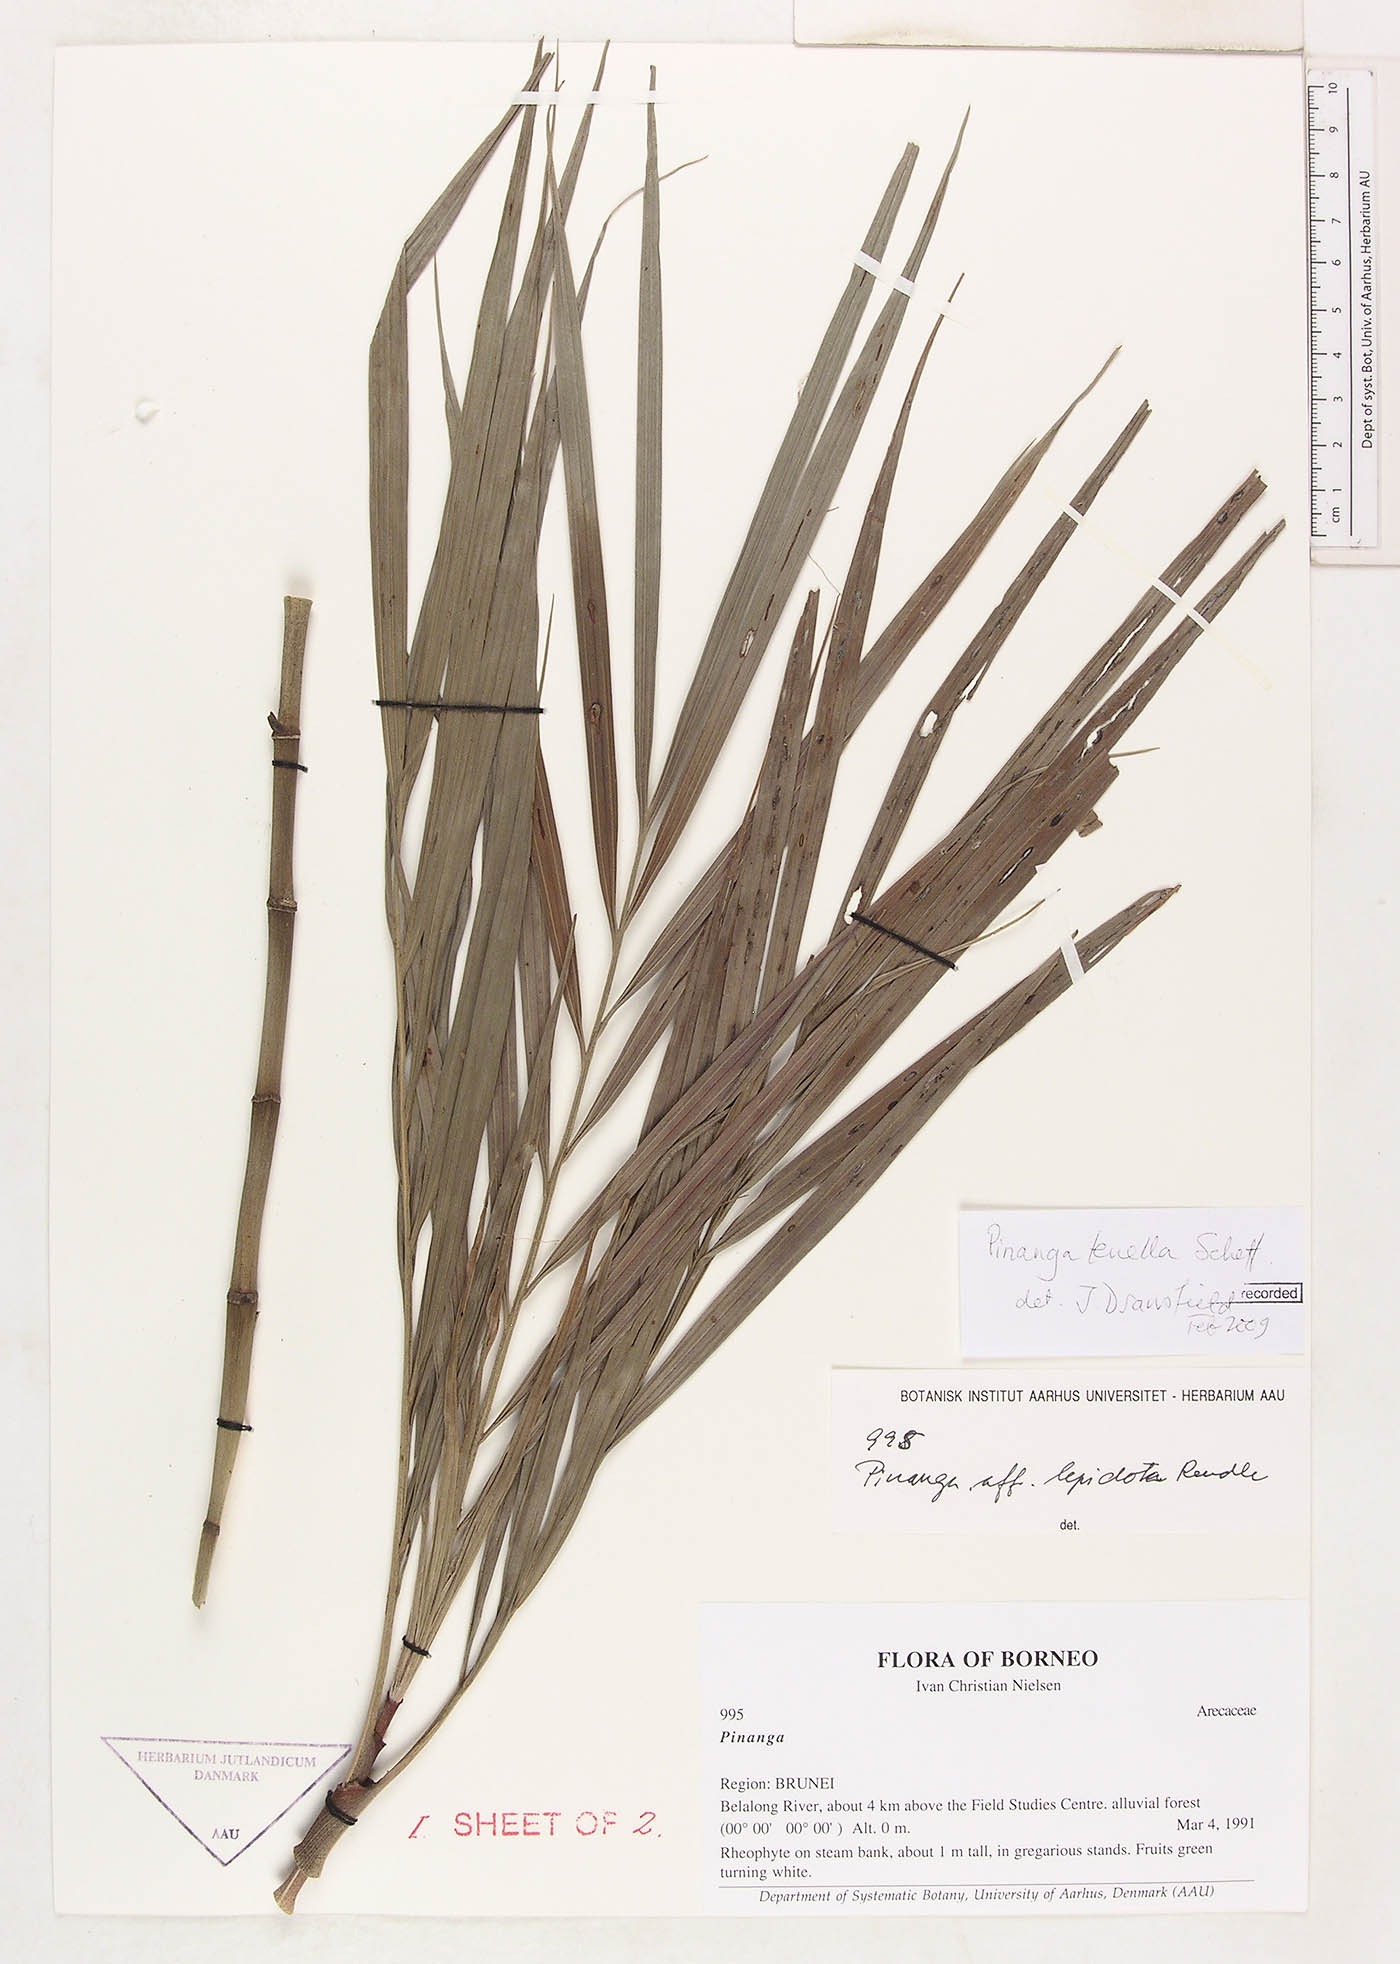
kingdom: Plantae
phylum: Tracheophyta
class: Liliopsida
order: Arecales
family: Arecaceae
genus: Pinanga
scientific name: Pinanga tenella
